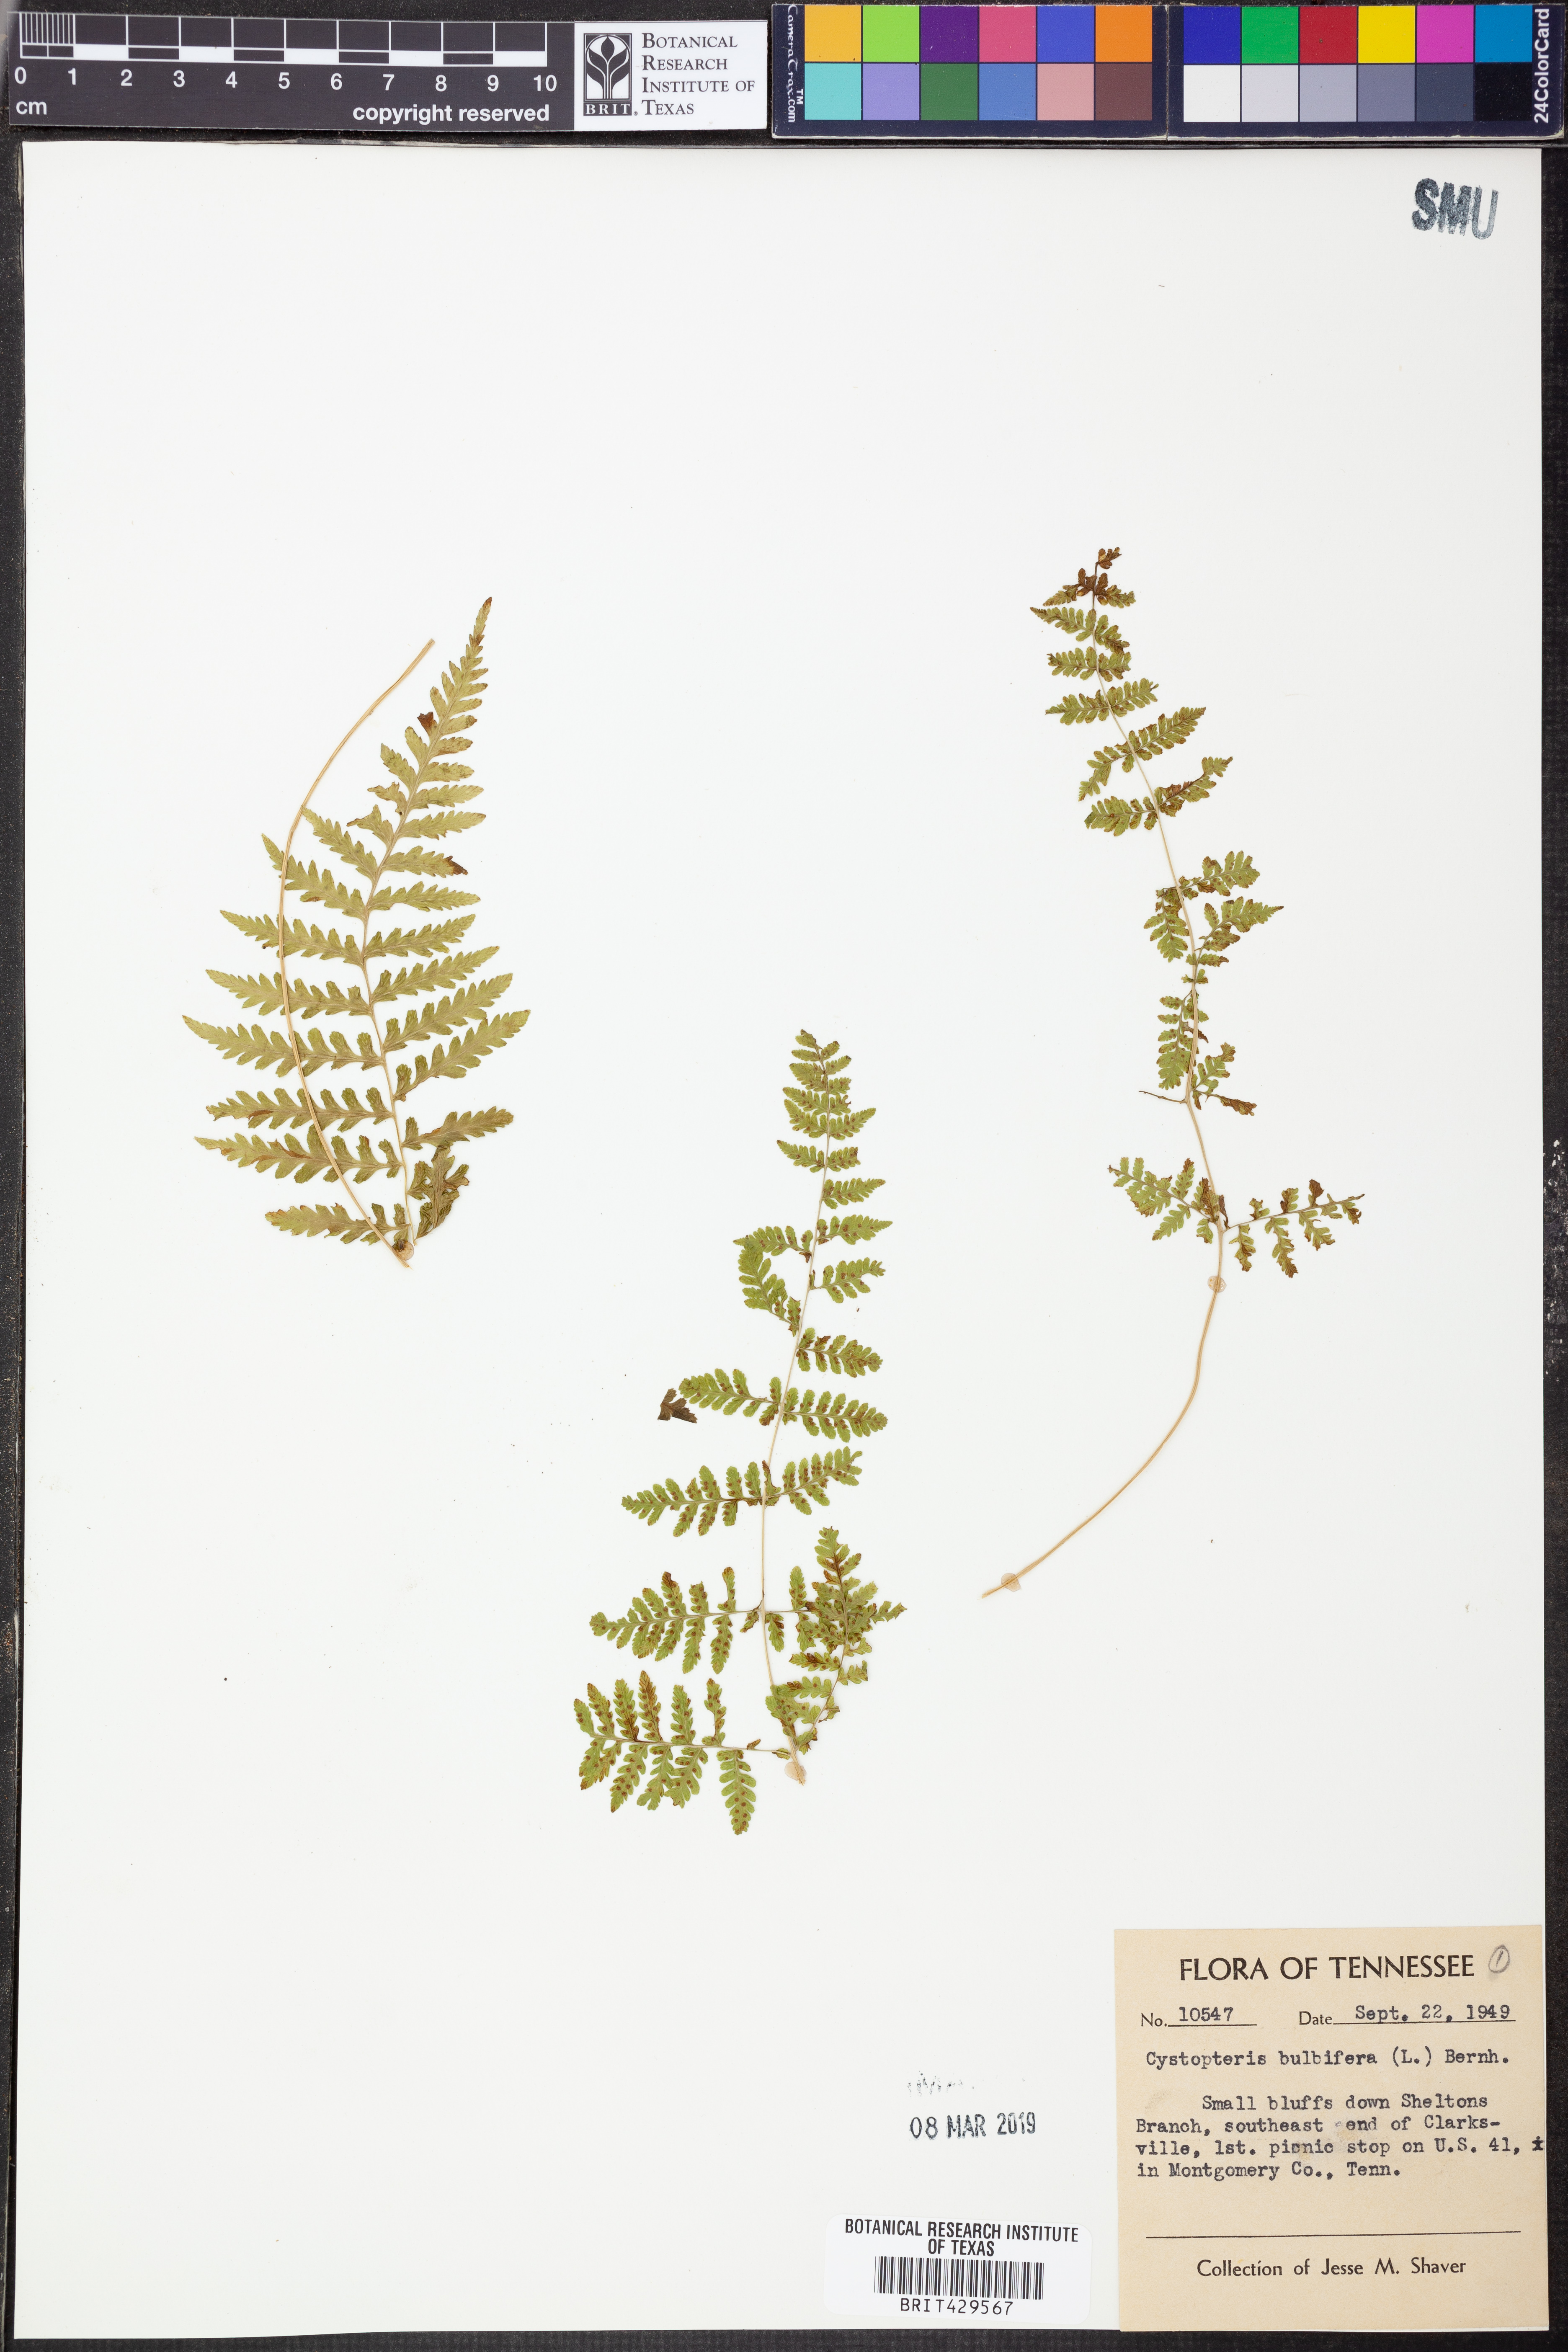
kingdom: Plantae
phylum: Tracheophyta
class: Polypodiopsida
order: Polypodiales
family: Cystopteridaceae
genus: Cystopteris
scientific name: Cystopteris bulbifera
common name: Bulblet bladder fern
